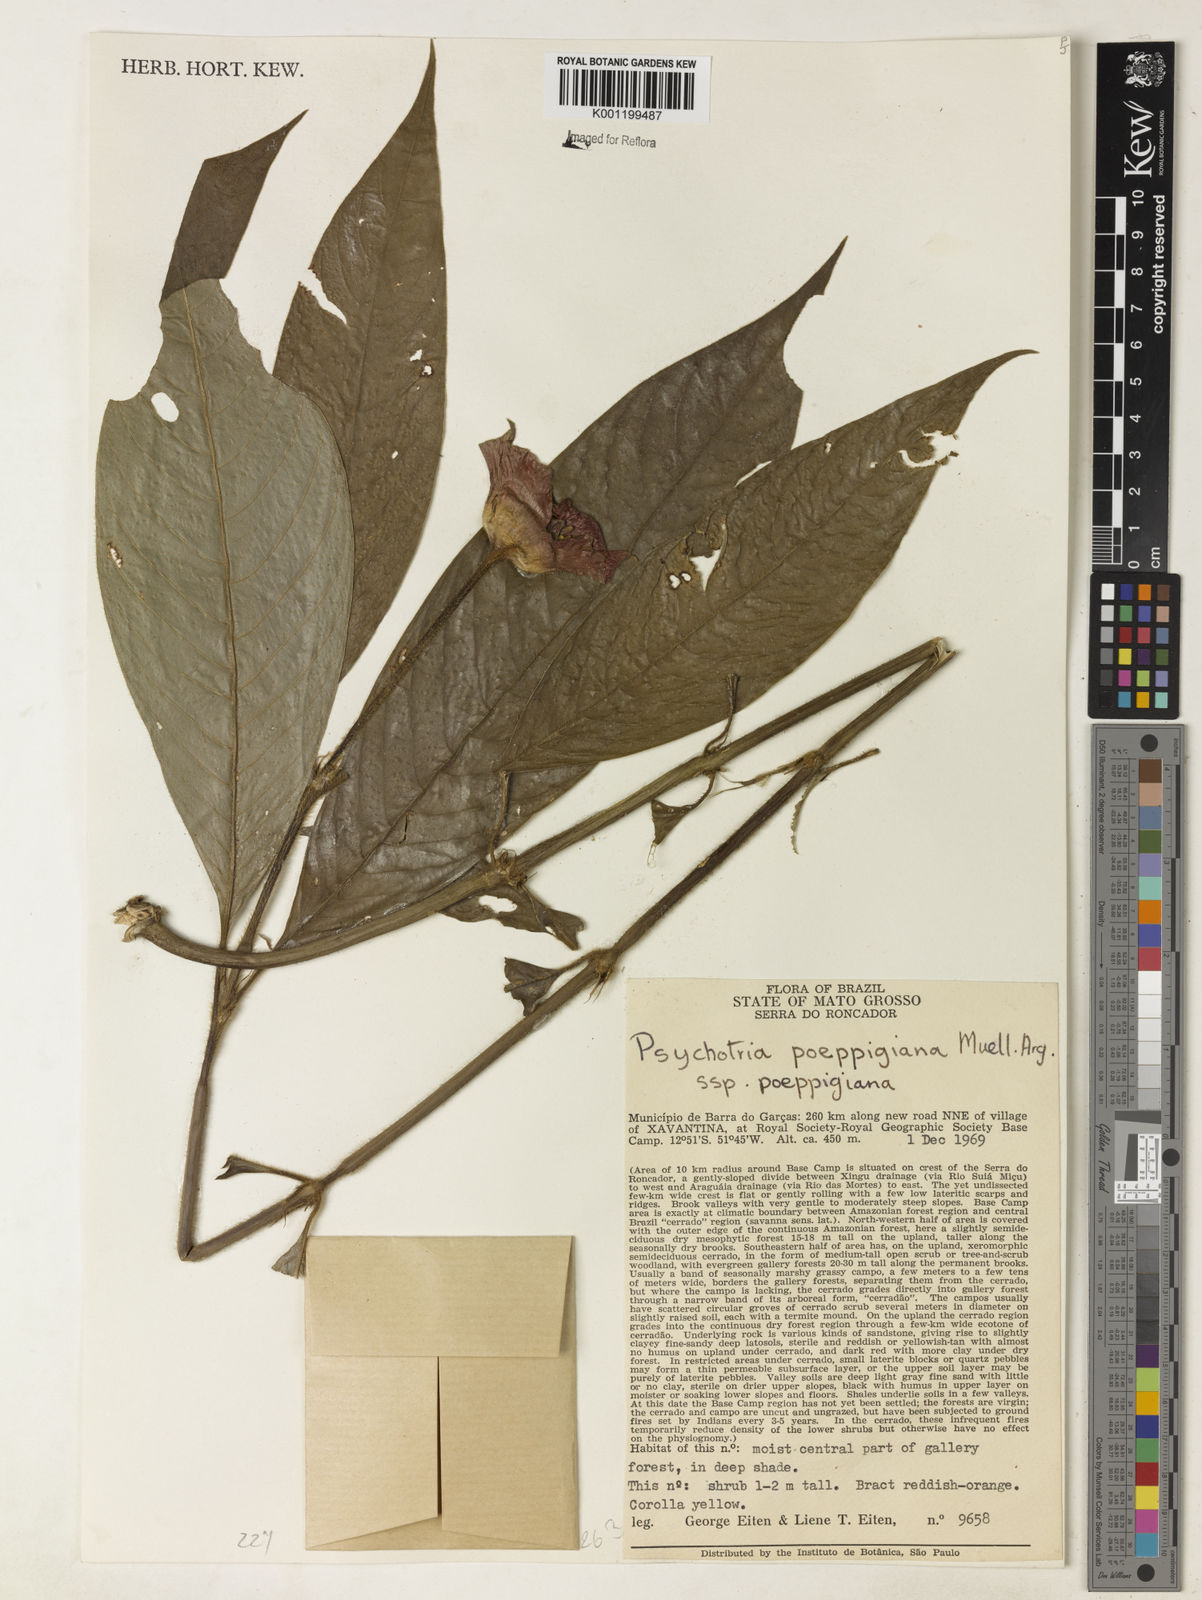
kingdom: Plantae
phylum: Tracheophyta
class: Magnoliopsida
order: Gentianales
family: Rubiaceae
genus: Psychotria
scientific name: Psychotria
